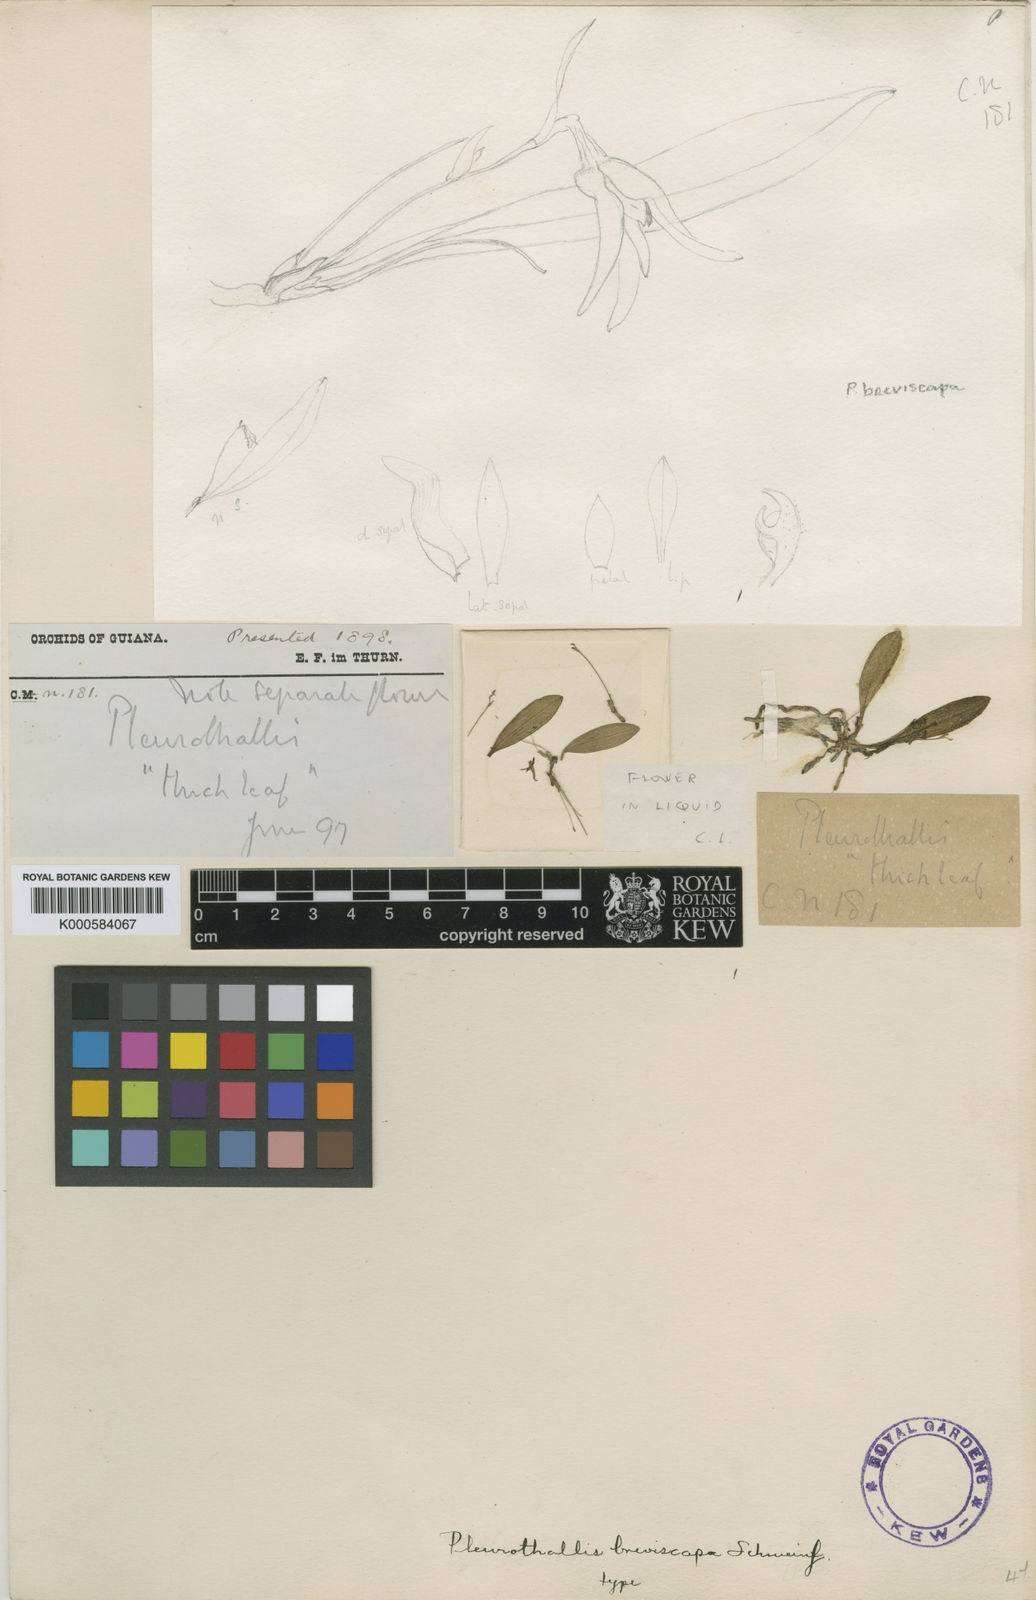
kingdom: Plantae
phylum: Tracheophyta
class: Liliopsida
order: Asparagales
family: Orchidaceae
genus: Anathallis
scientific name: Anathallis funerea
